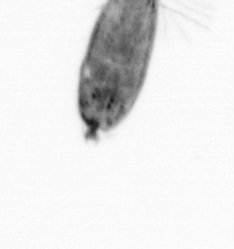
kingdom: Animalia
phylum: Arthropoda
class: Maxillopoda
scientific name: Maxillopoda
